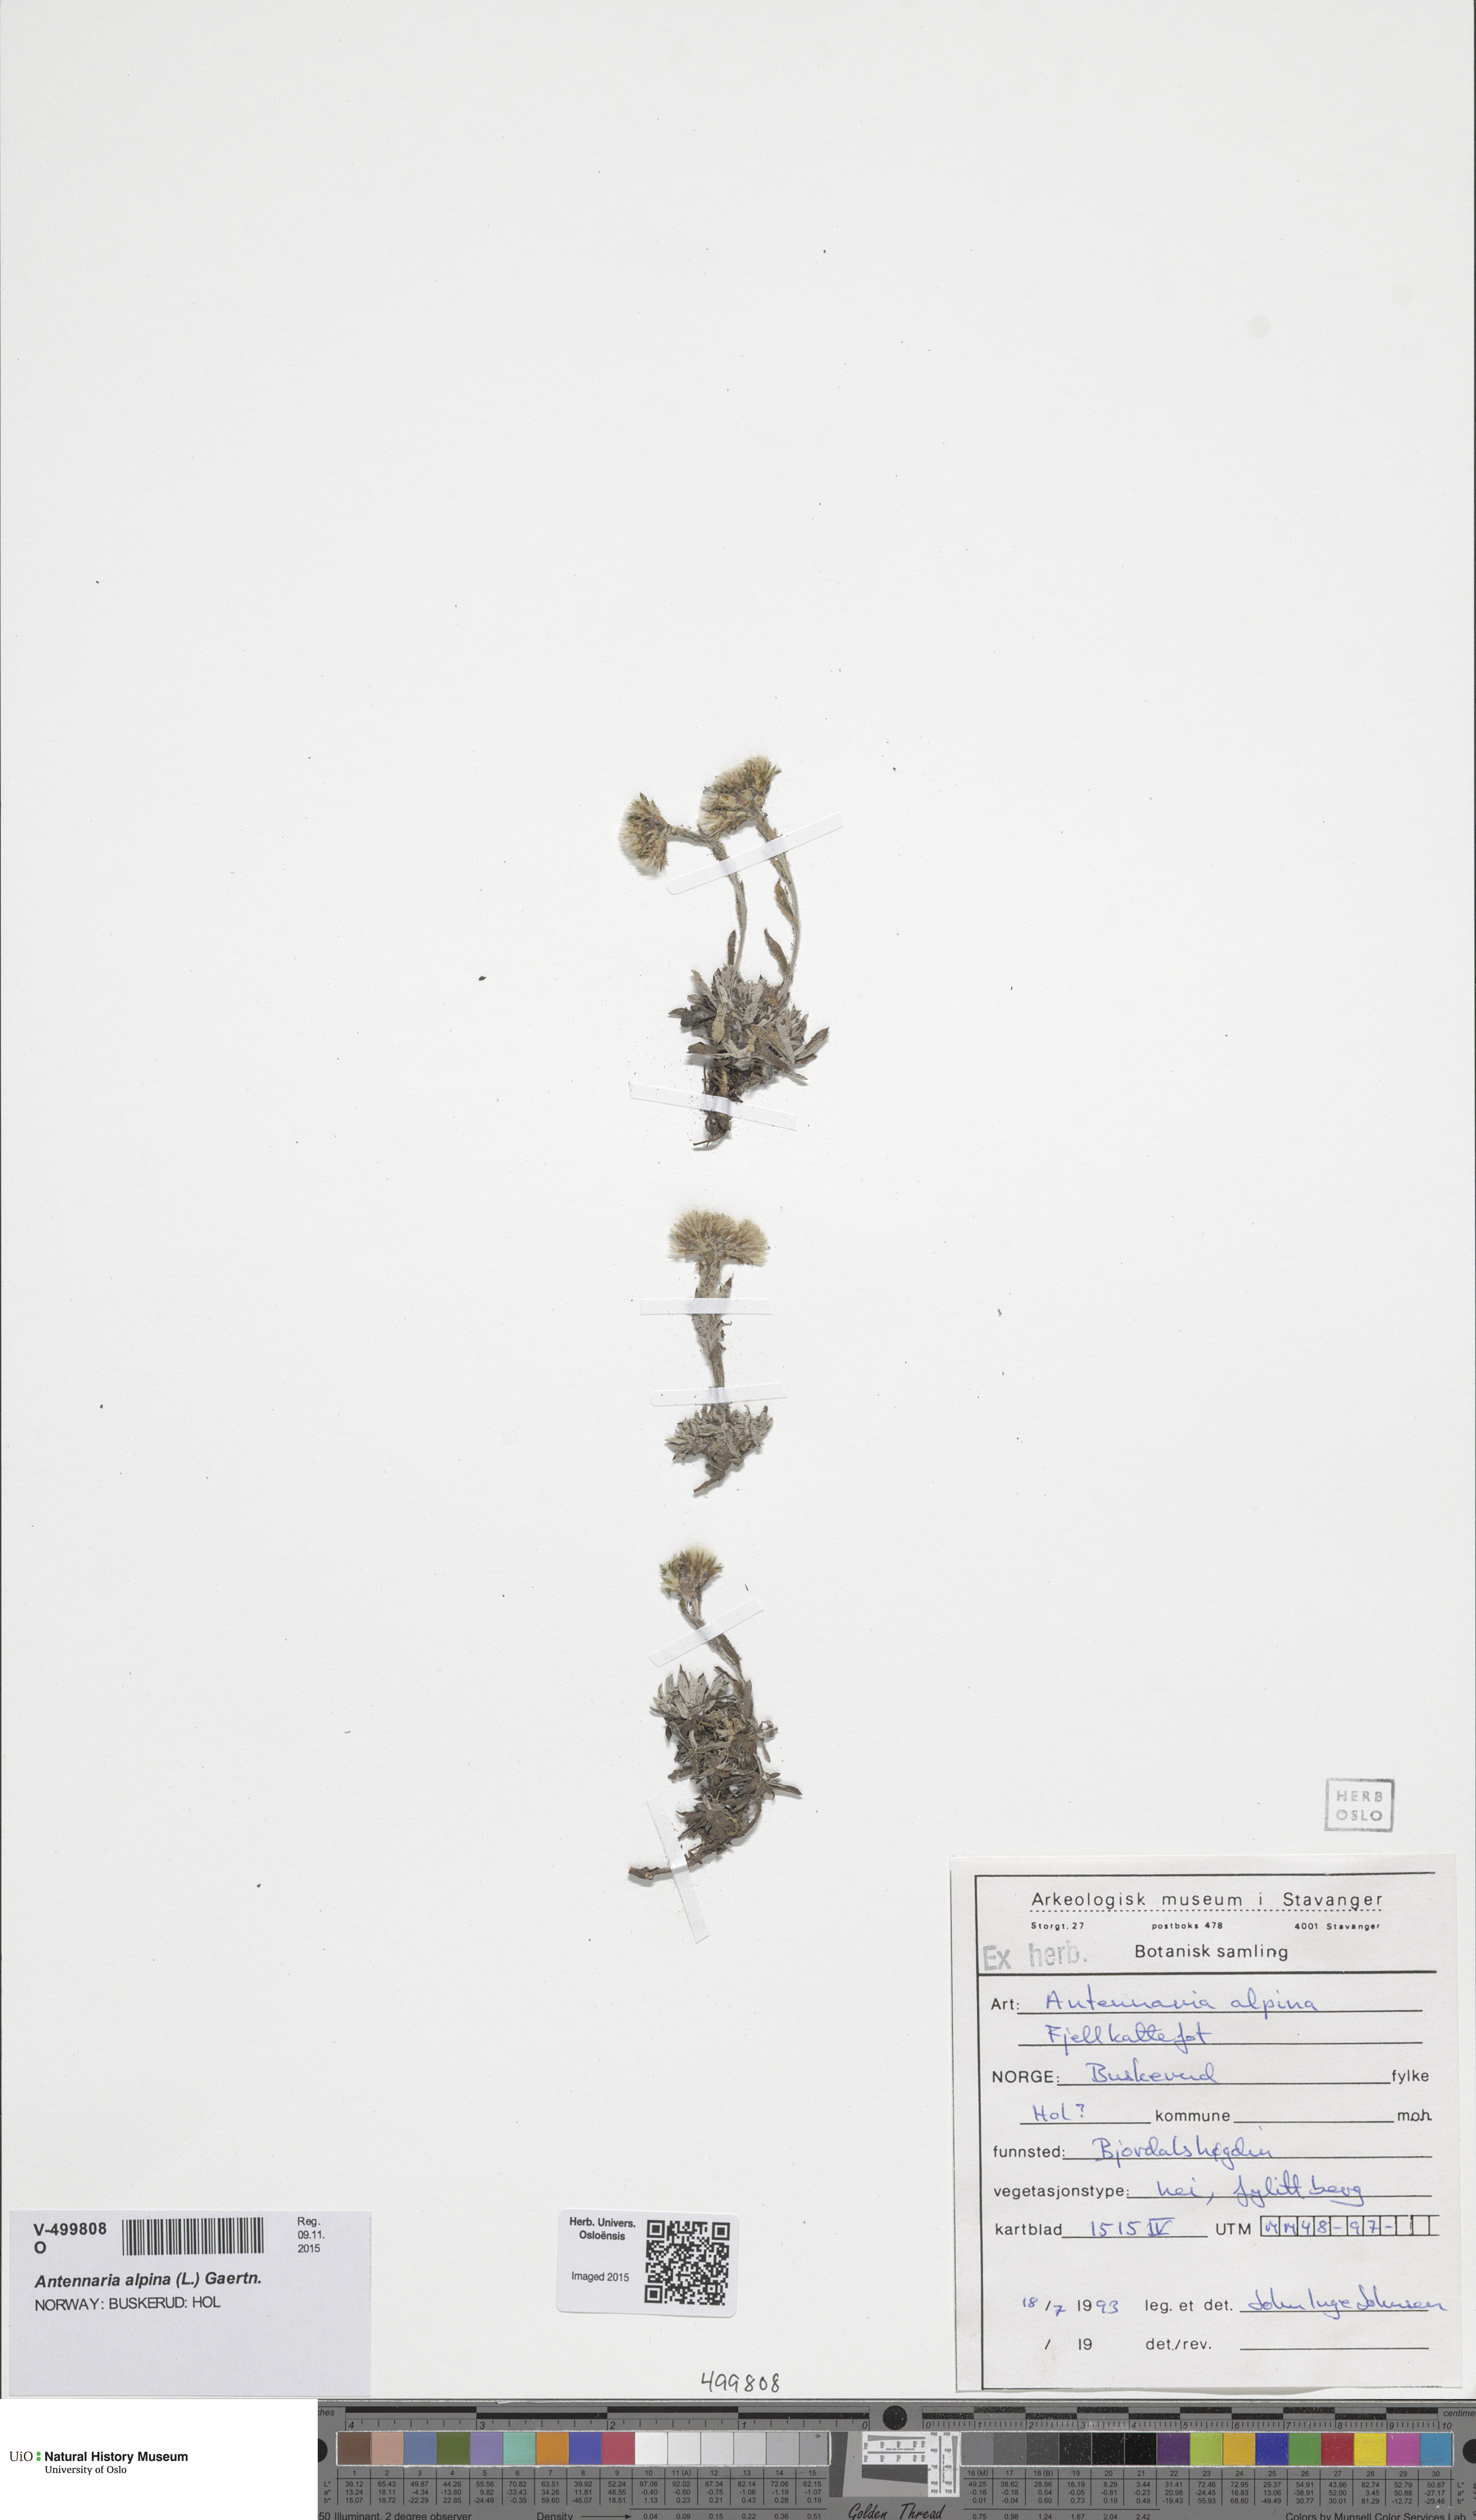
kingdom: Plantae
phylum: Tracheophyta
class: Magnoliopsida
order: Asterales
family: Asteraceae
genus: Antennaria
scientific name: Antennaria alpina
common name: Alpine pussytoes
